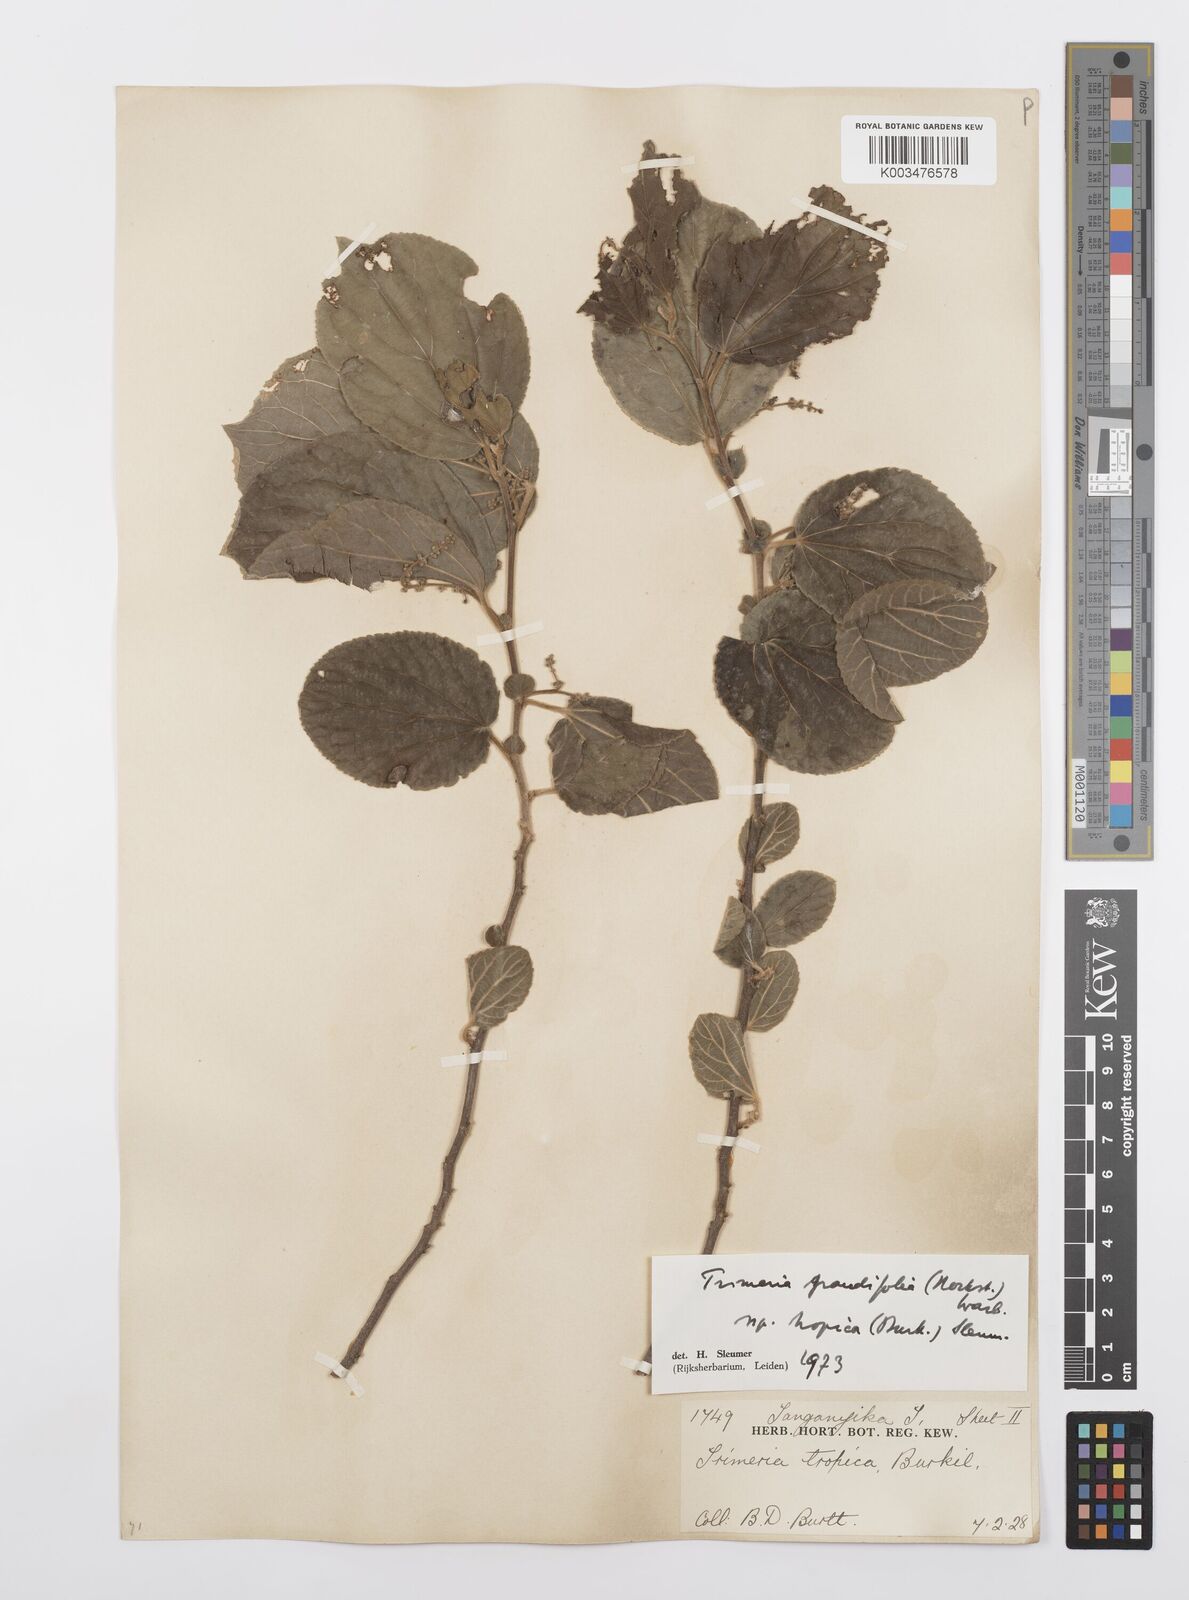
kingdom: Plantae
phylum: Tracheophyta
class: Magnoliopsida
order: Malpighiales
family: Salicaceae
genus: Trimeria
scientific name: Trimeria grandifolia
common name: Wild mulberry
